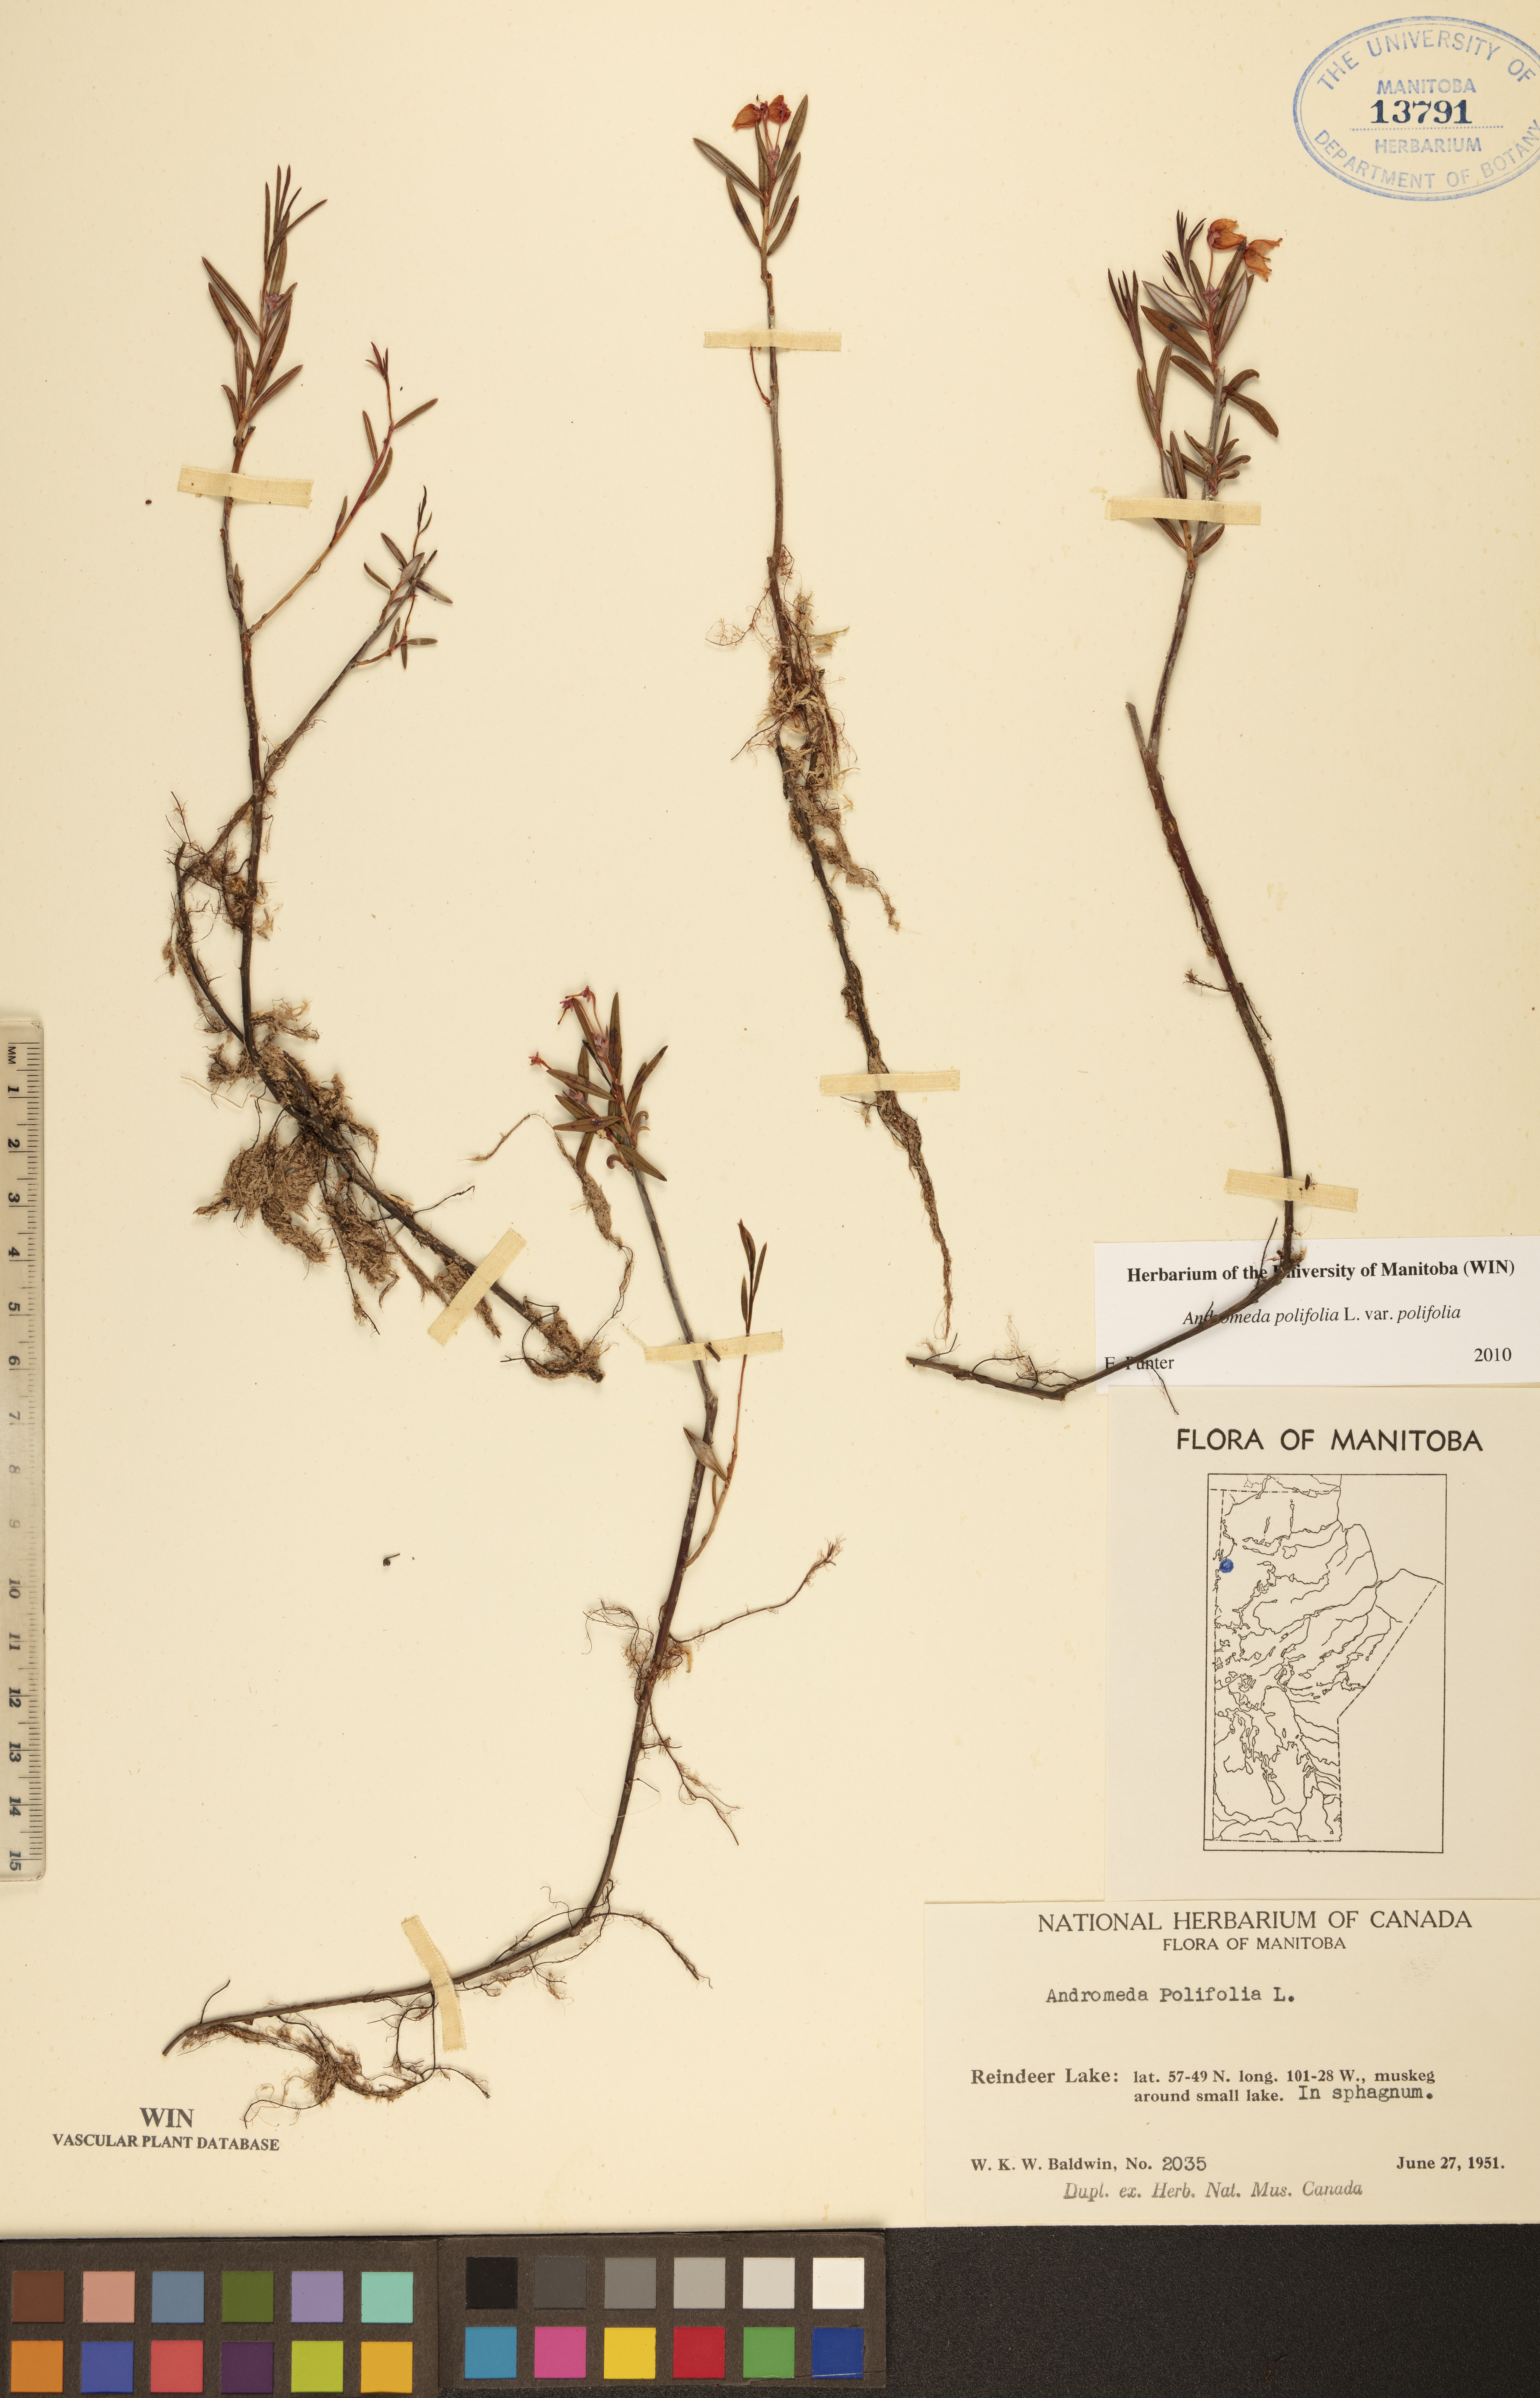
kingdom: Plantae
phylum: Tracheophyta
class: Magnoliopsida
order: Ericales
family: Ericaceae
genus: Andromeda
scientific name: Andromeda polifolia
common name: Bog-rosemary
